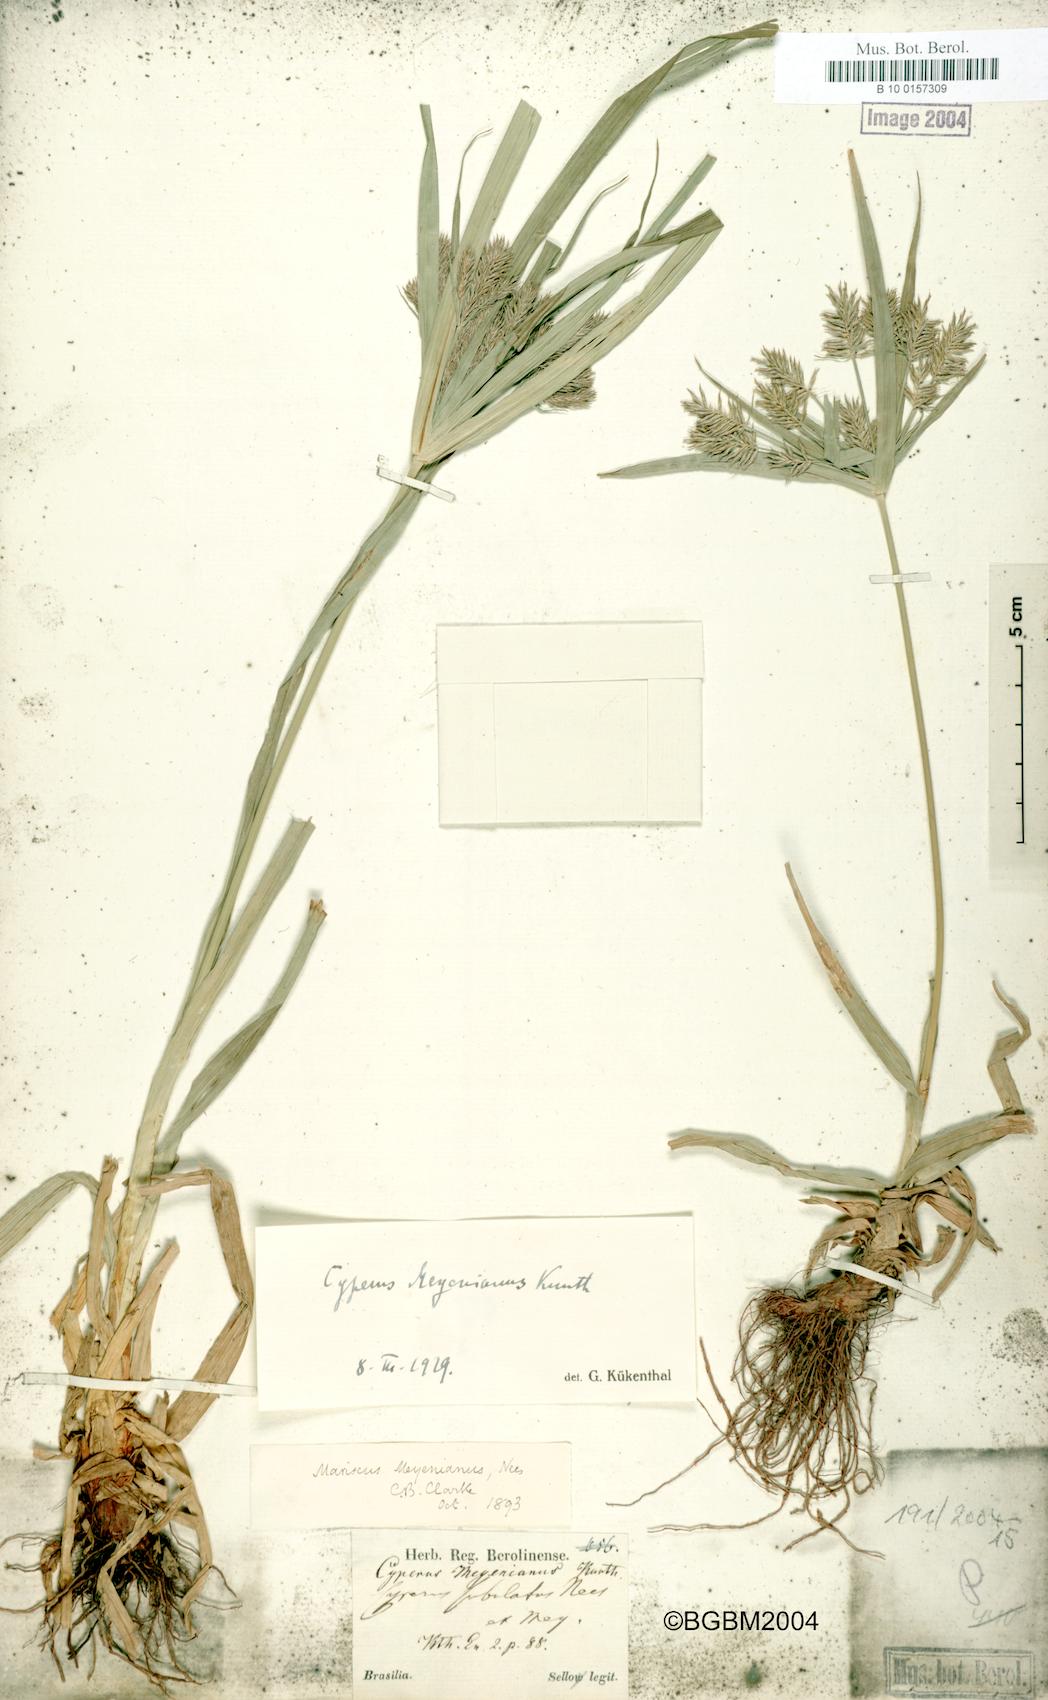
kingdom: Plantae
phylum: Tracheophyta
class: Liliopsida
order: Poales
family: Cyperaceae
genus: Cyperus
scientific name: Cyperus meyenianus
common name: Meyen's flatsedge
